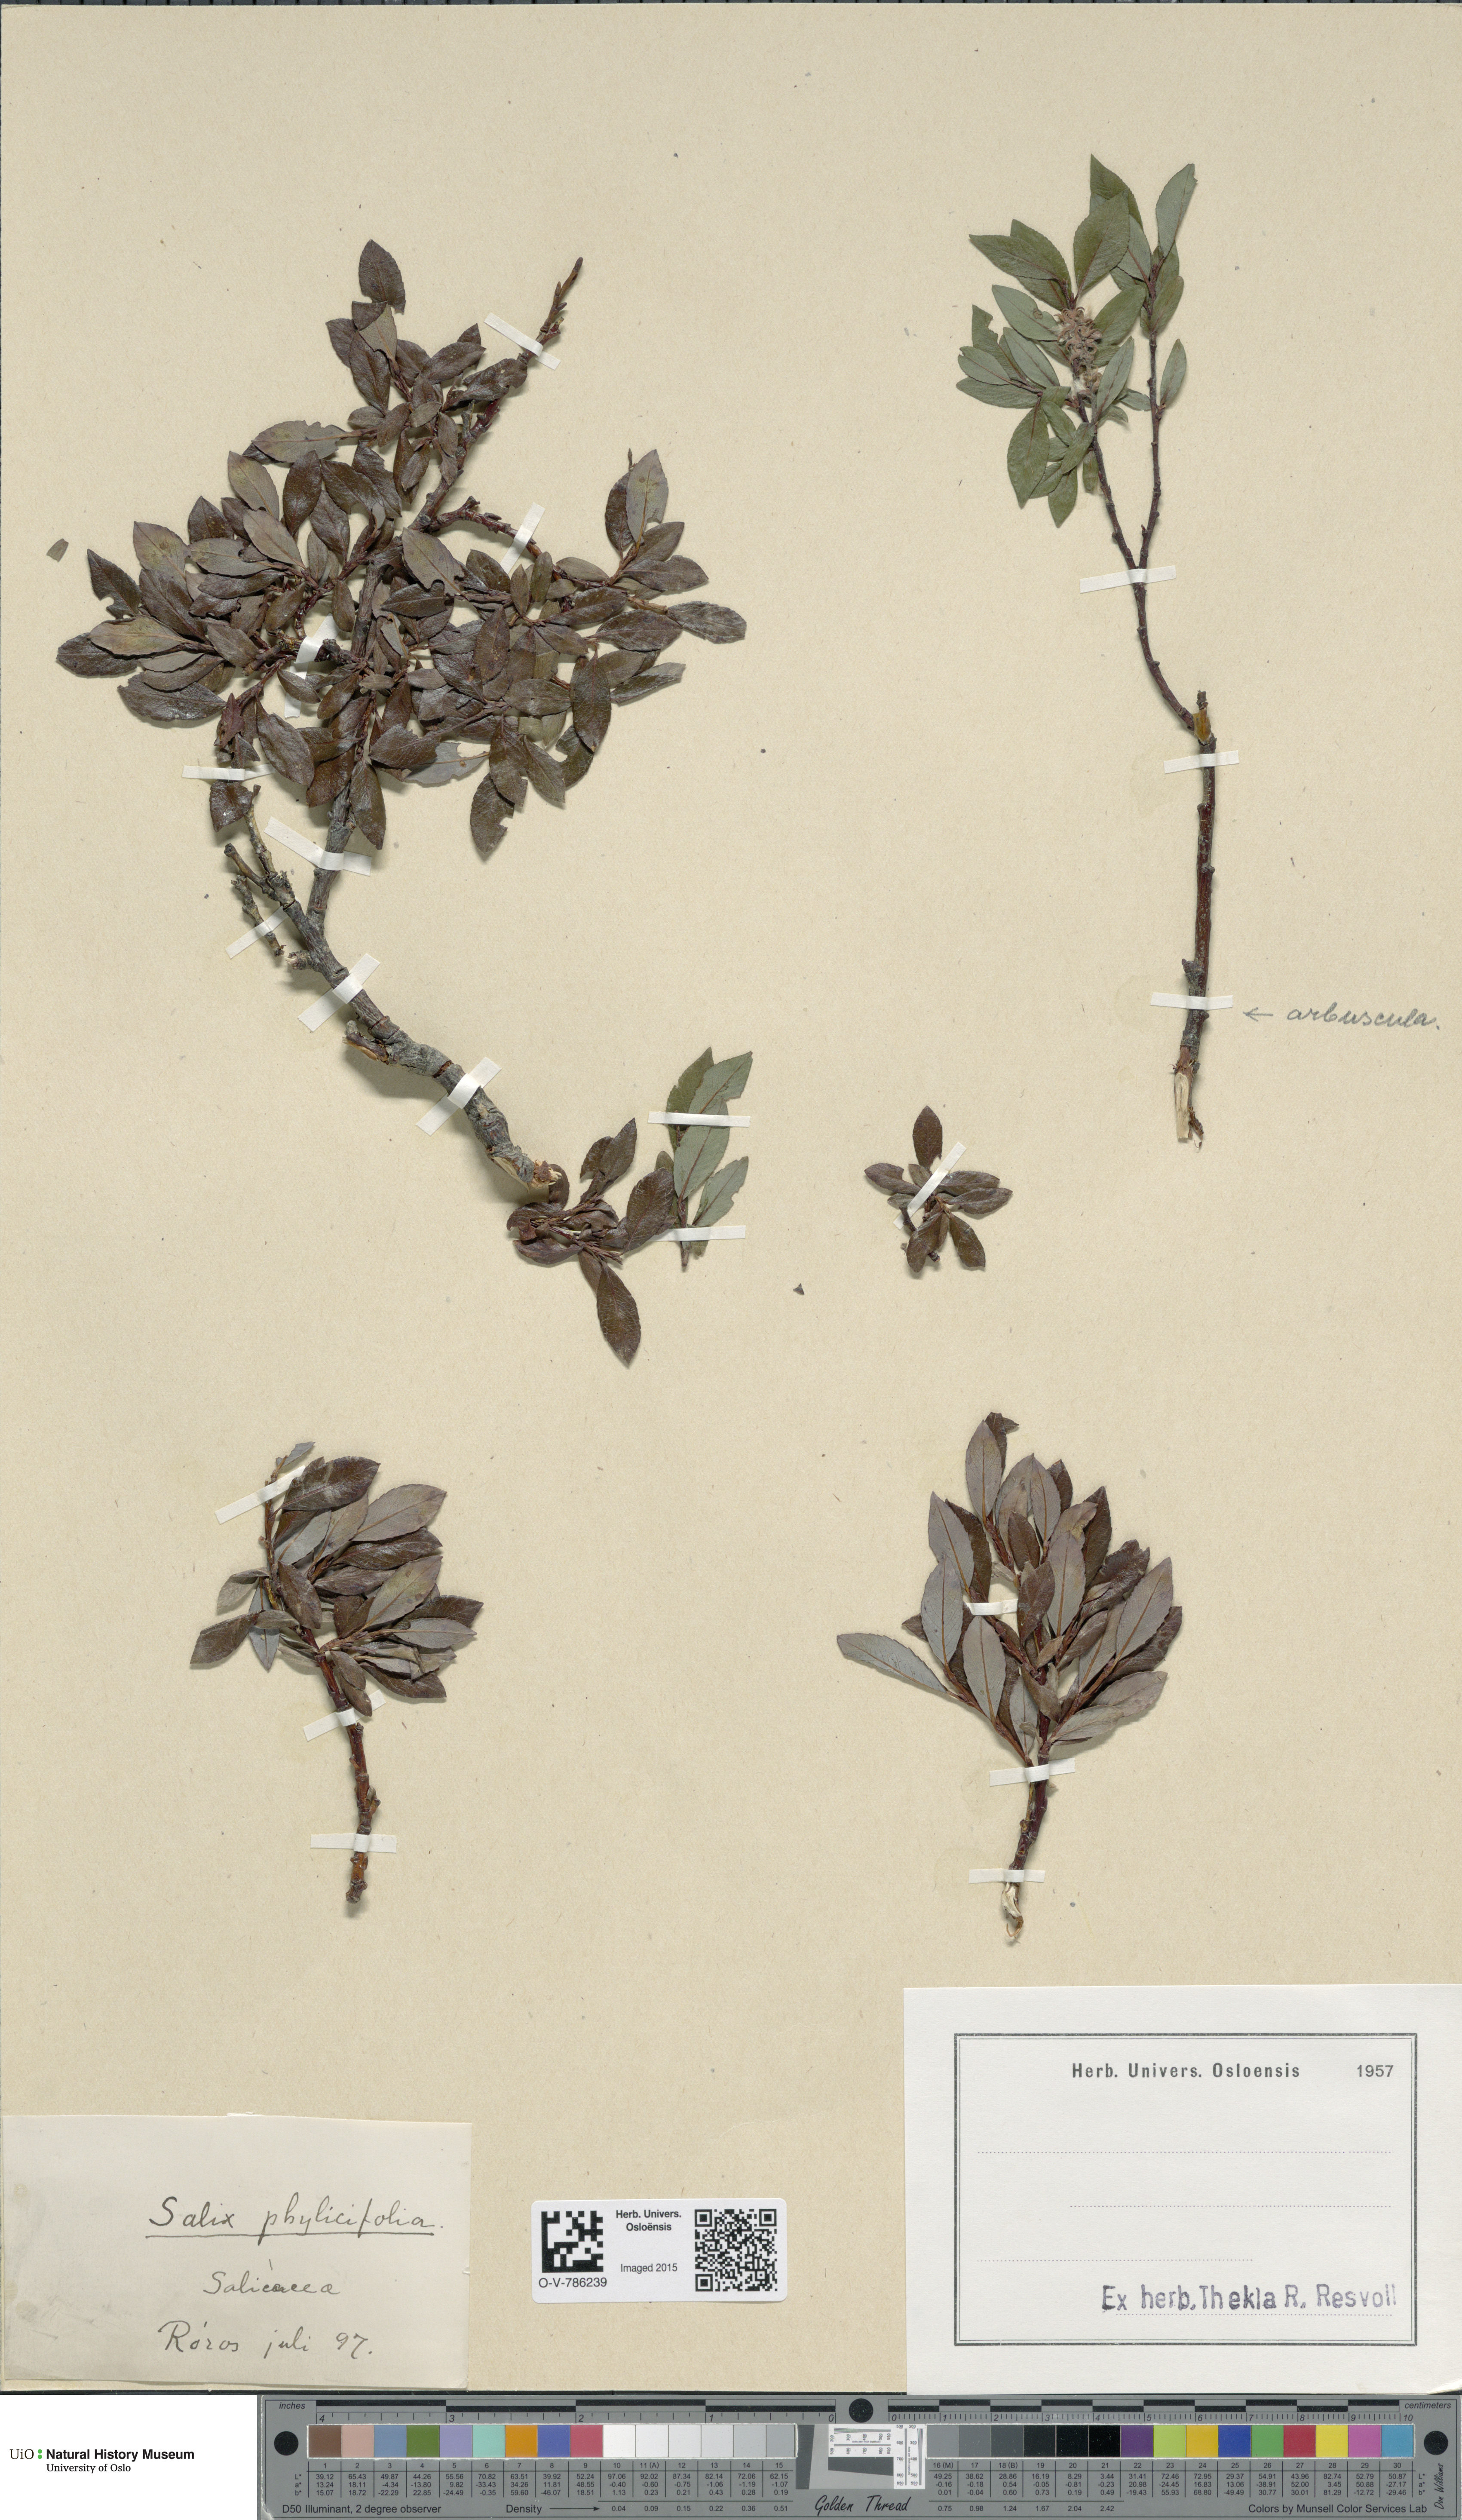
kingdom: Plantae
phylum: Tracheophyta
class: Magnoliopsida
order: Malpighiales
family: Salicaceae
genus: Salix
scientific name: Salix arbuscula
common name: Mountain willow
